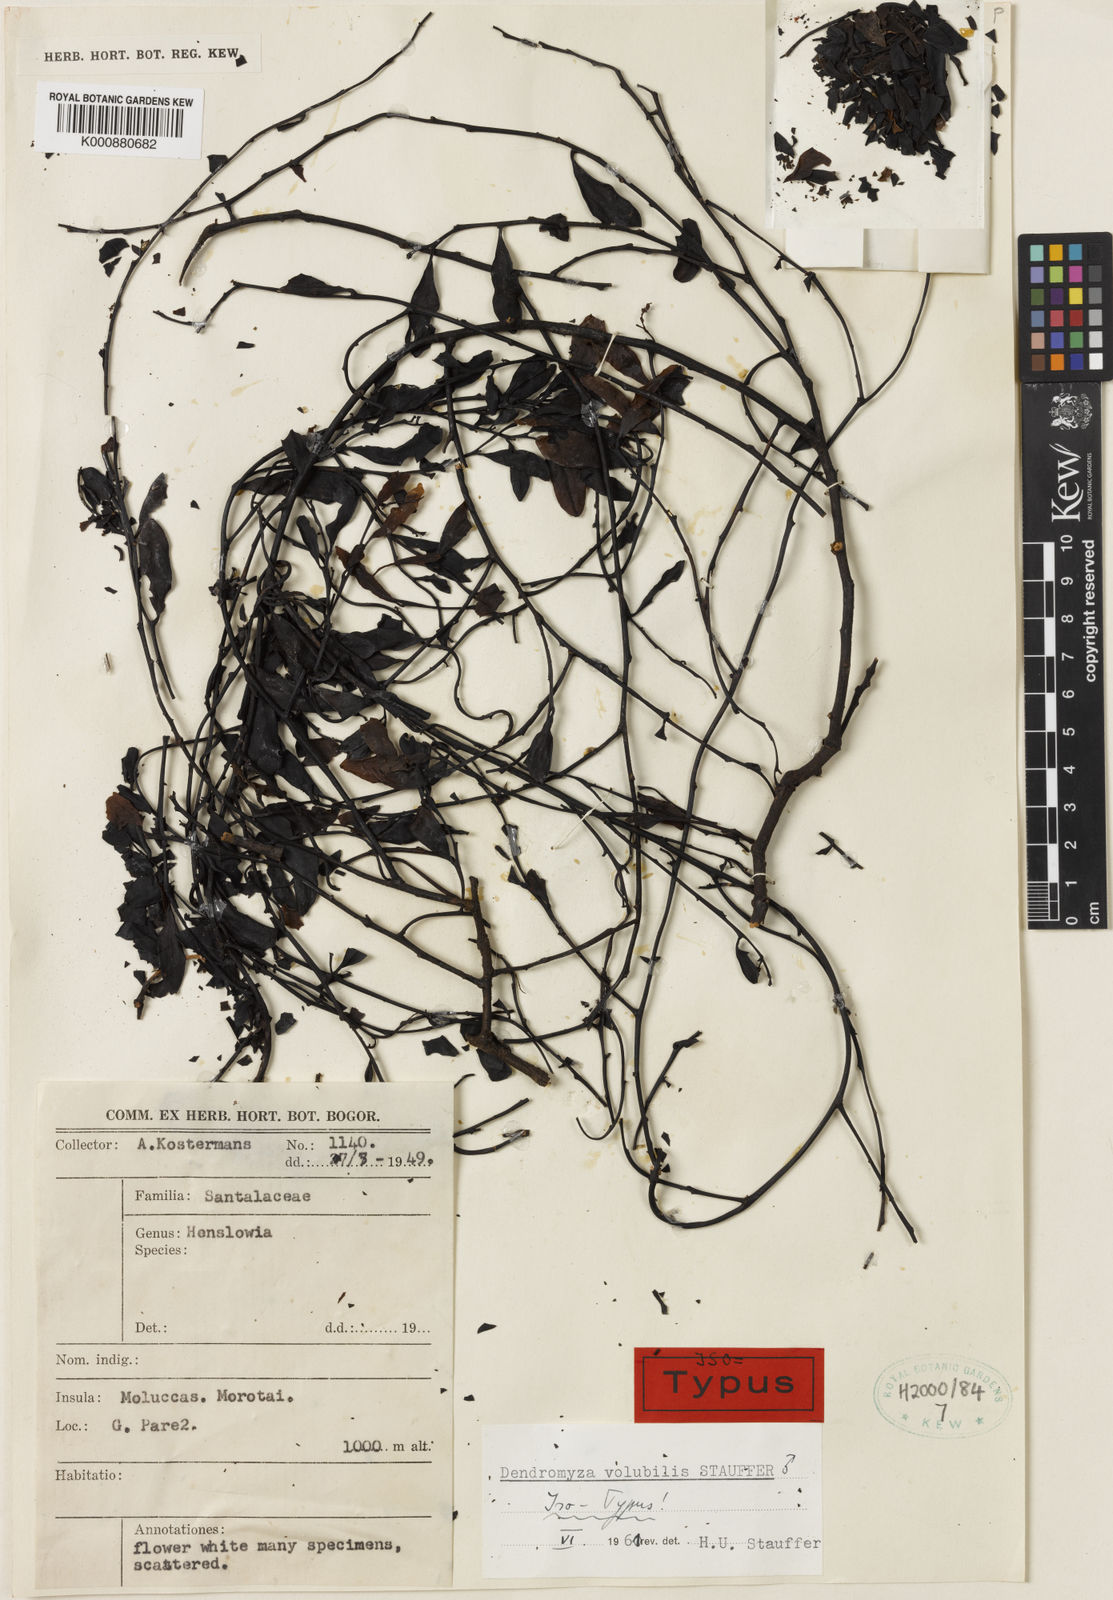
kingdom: Plantae
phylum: Tracheophyta
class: Magnoliopsida
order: Santalales
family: Amphorogynaceae
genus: Dendromyza
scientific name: Dendromyza volubilis
